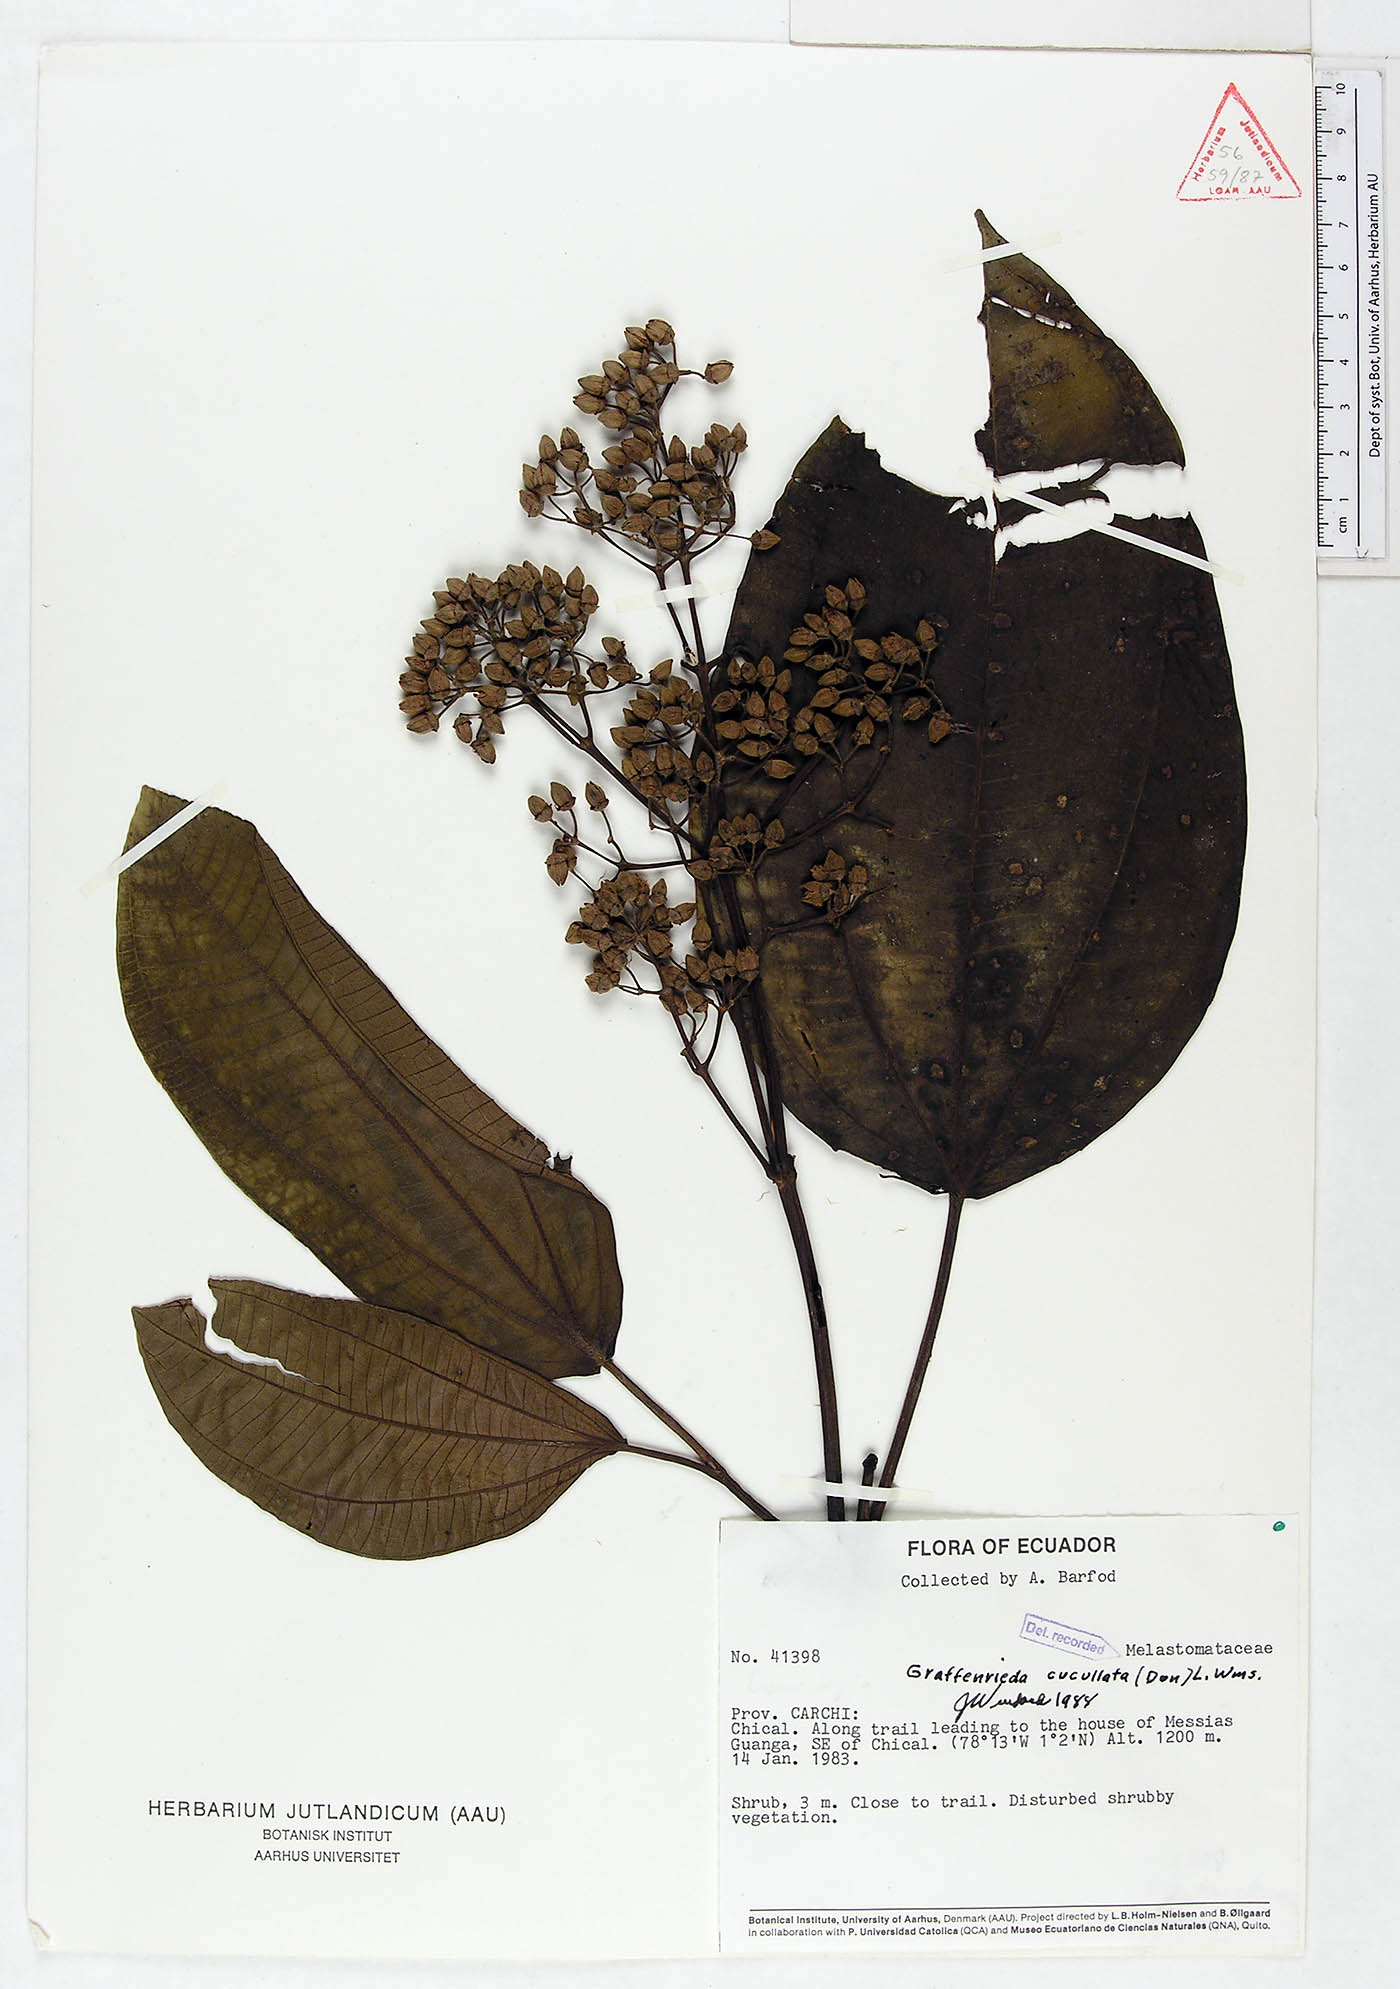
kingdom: Plantae
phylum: Tracheophyta
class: Magnoliopsida
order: Myrtales
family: Melastomataceae
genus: Graffenrieda
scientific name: Graffenrieda cucullata
